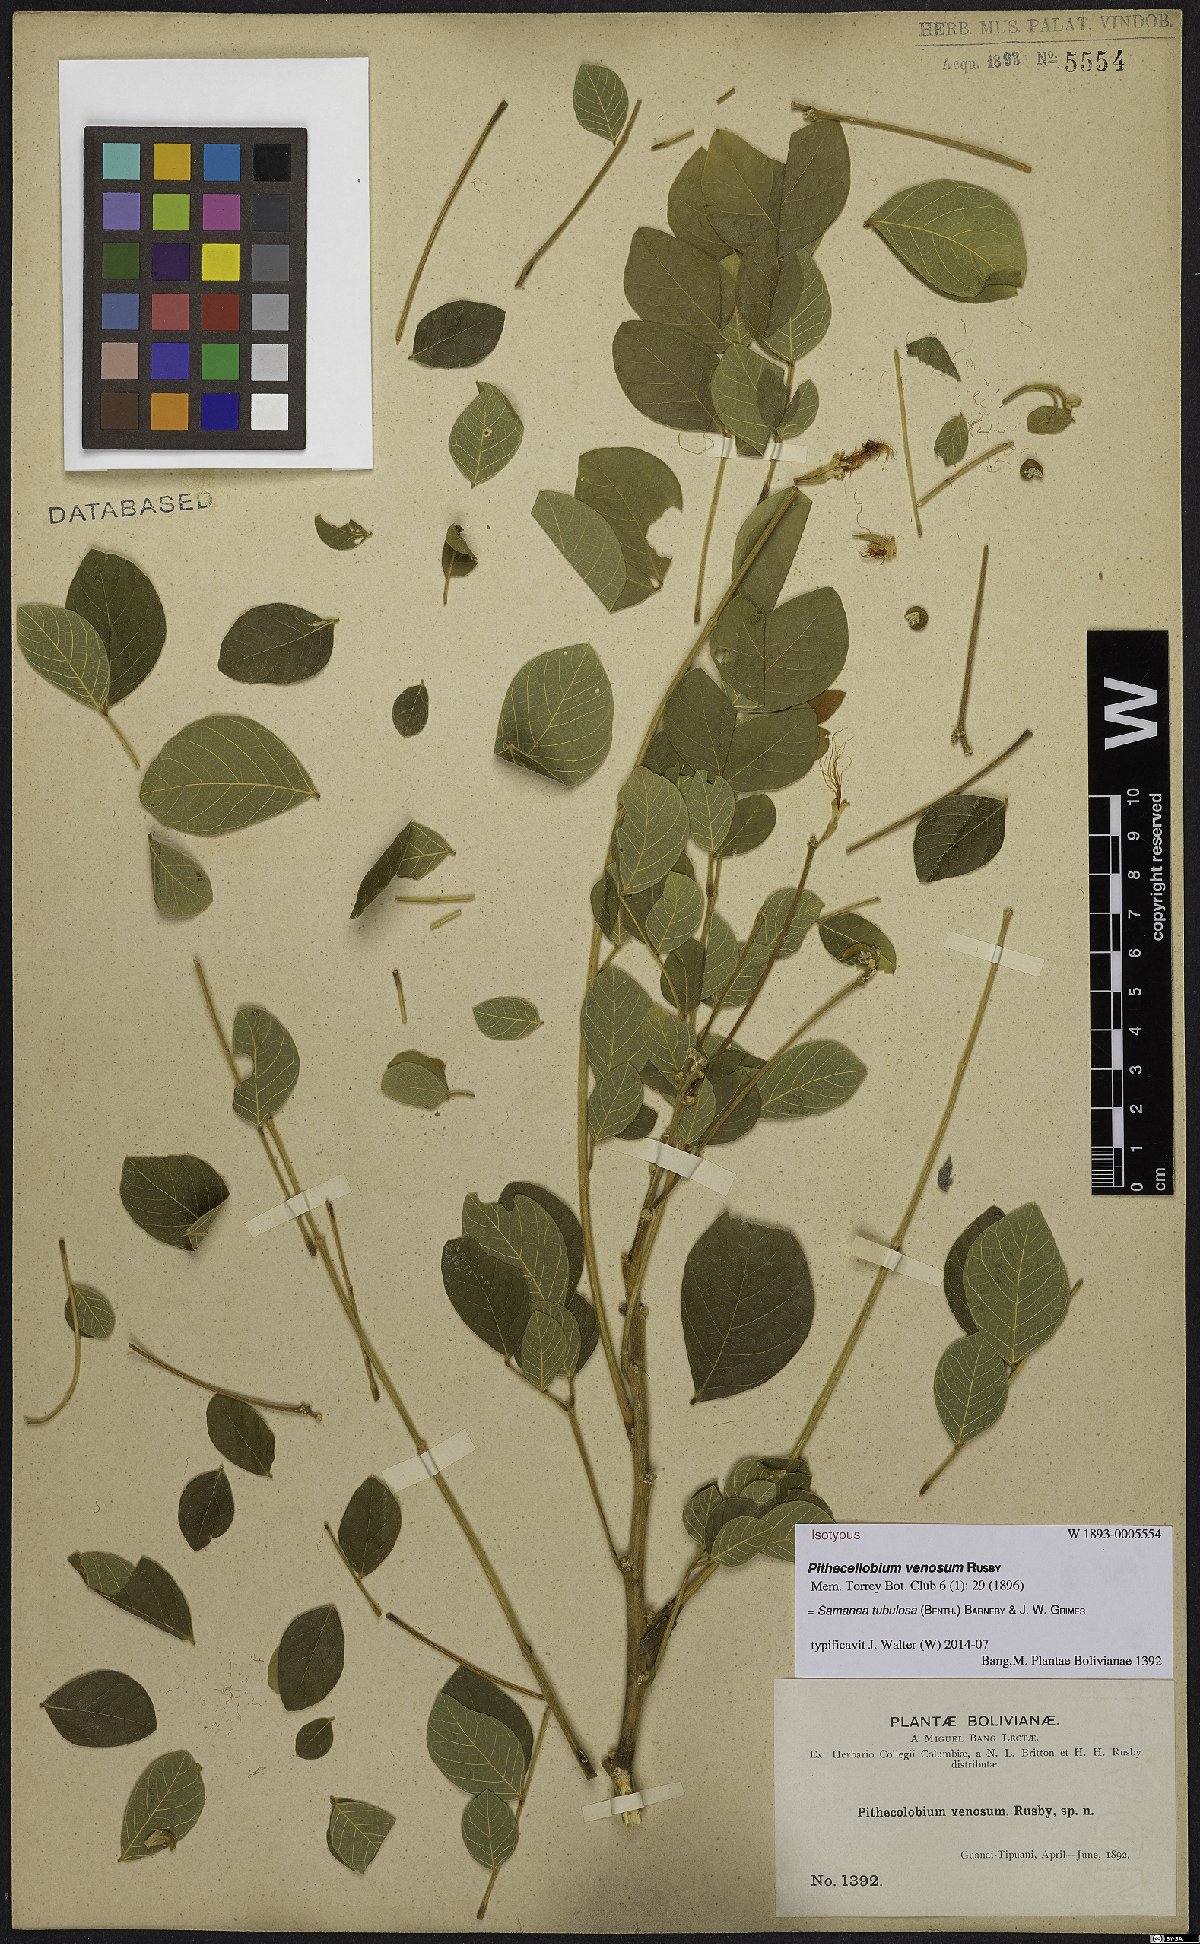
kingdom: Plantae
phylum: Tracheophyta
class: Magnoliopsida
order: Fabales
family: Fabaceae
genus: Samanea
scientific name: Samanea tubulosa
